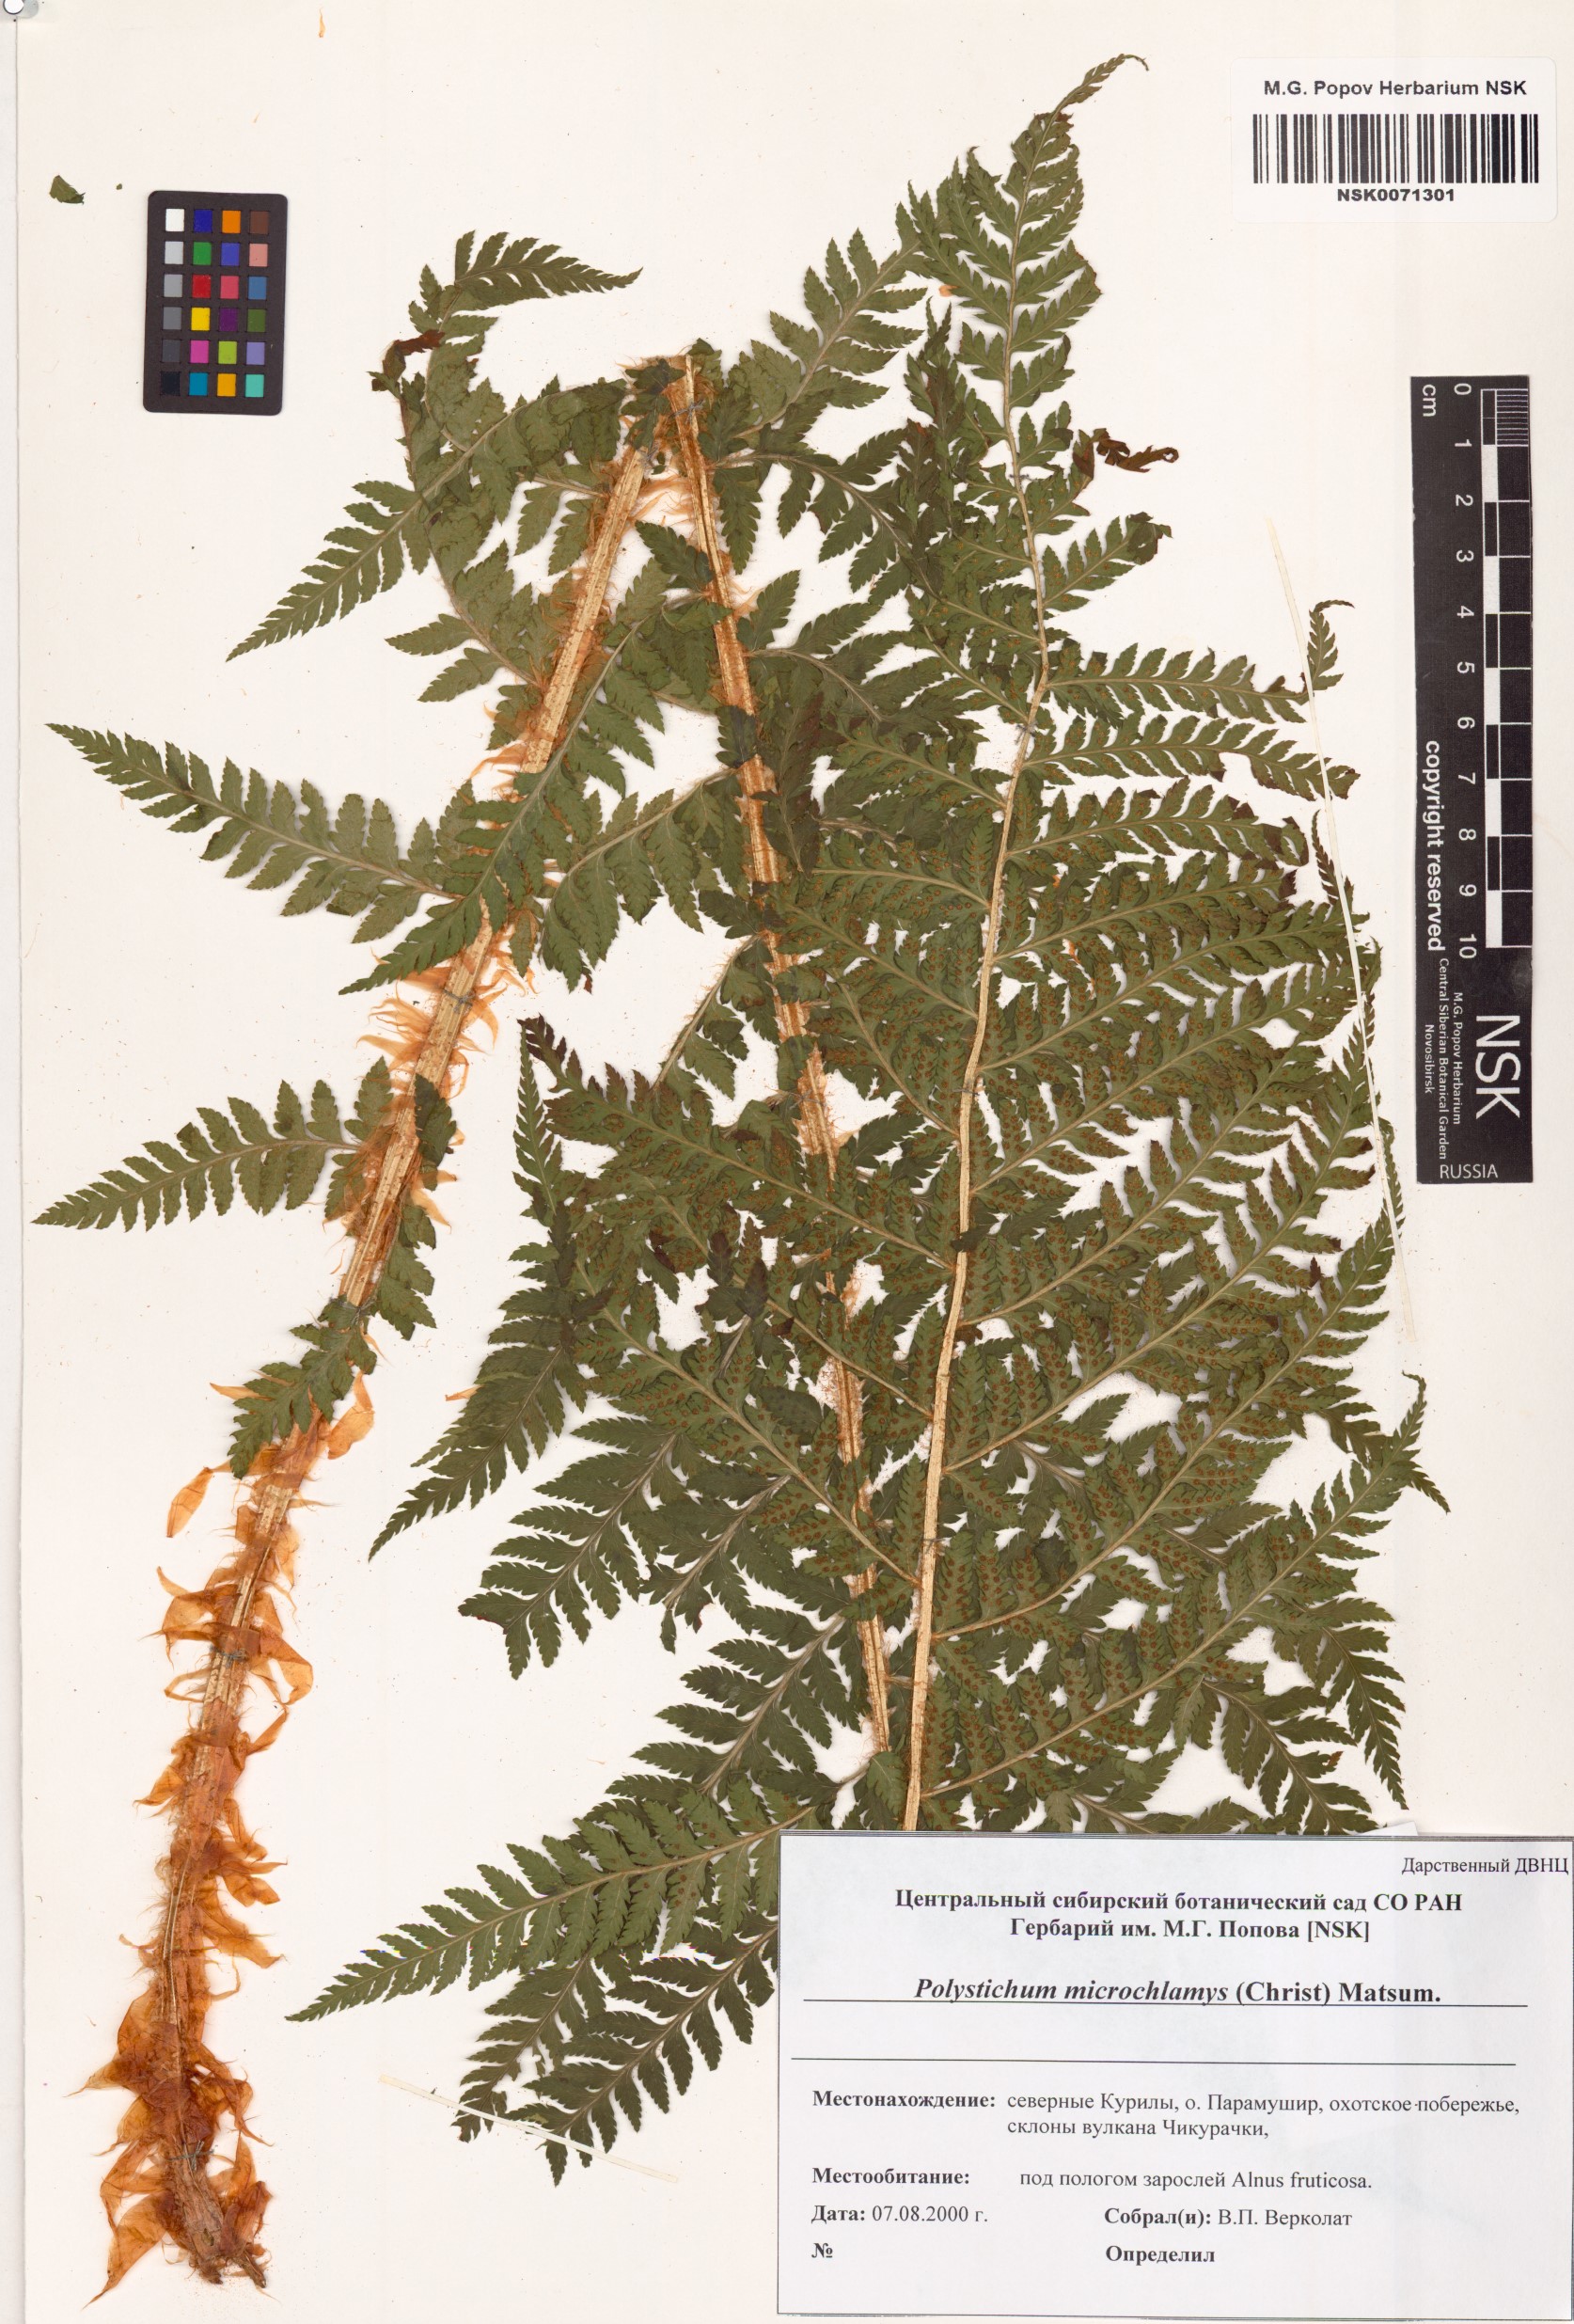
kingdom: Plantae
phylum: Tracheophyta
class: Polypodiopsida
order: Polypodiales
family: Dryopteridaceae
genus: Polystichum
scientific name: Polystichum microchlamys
